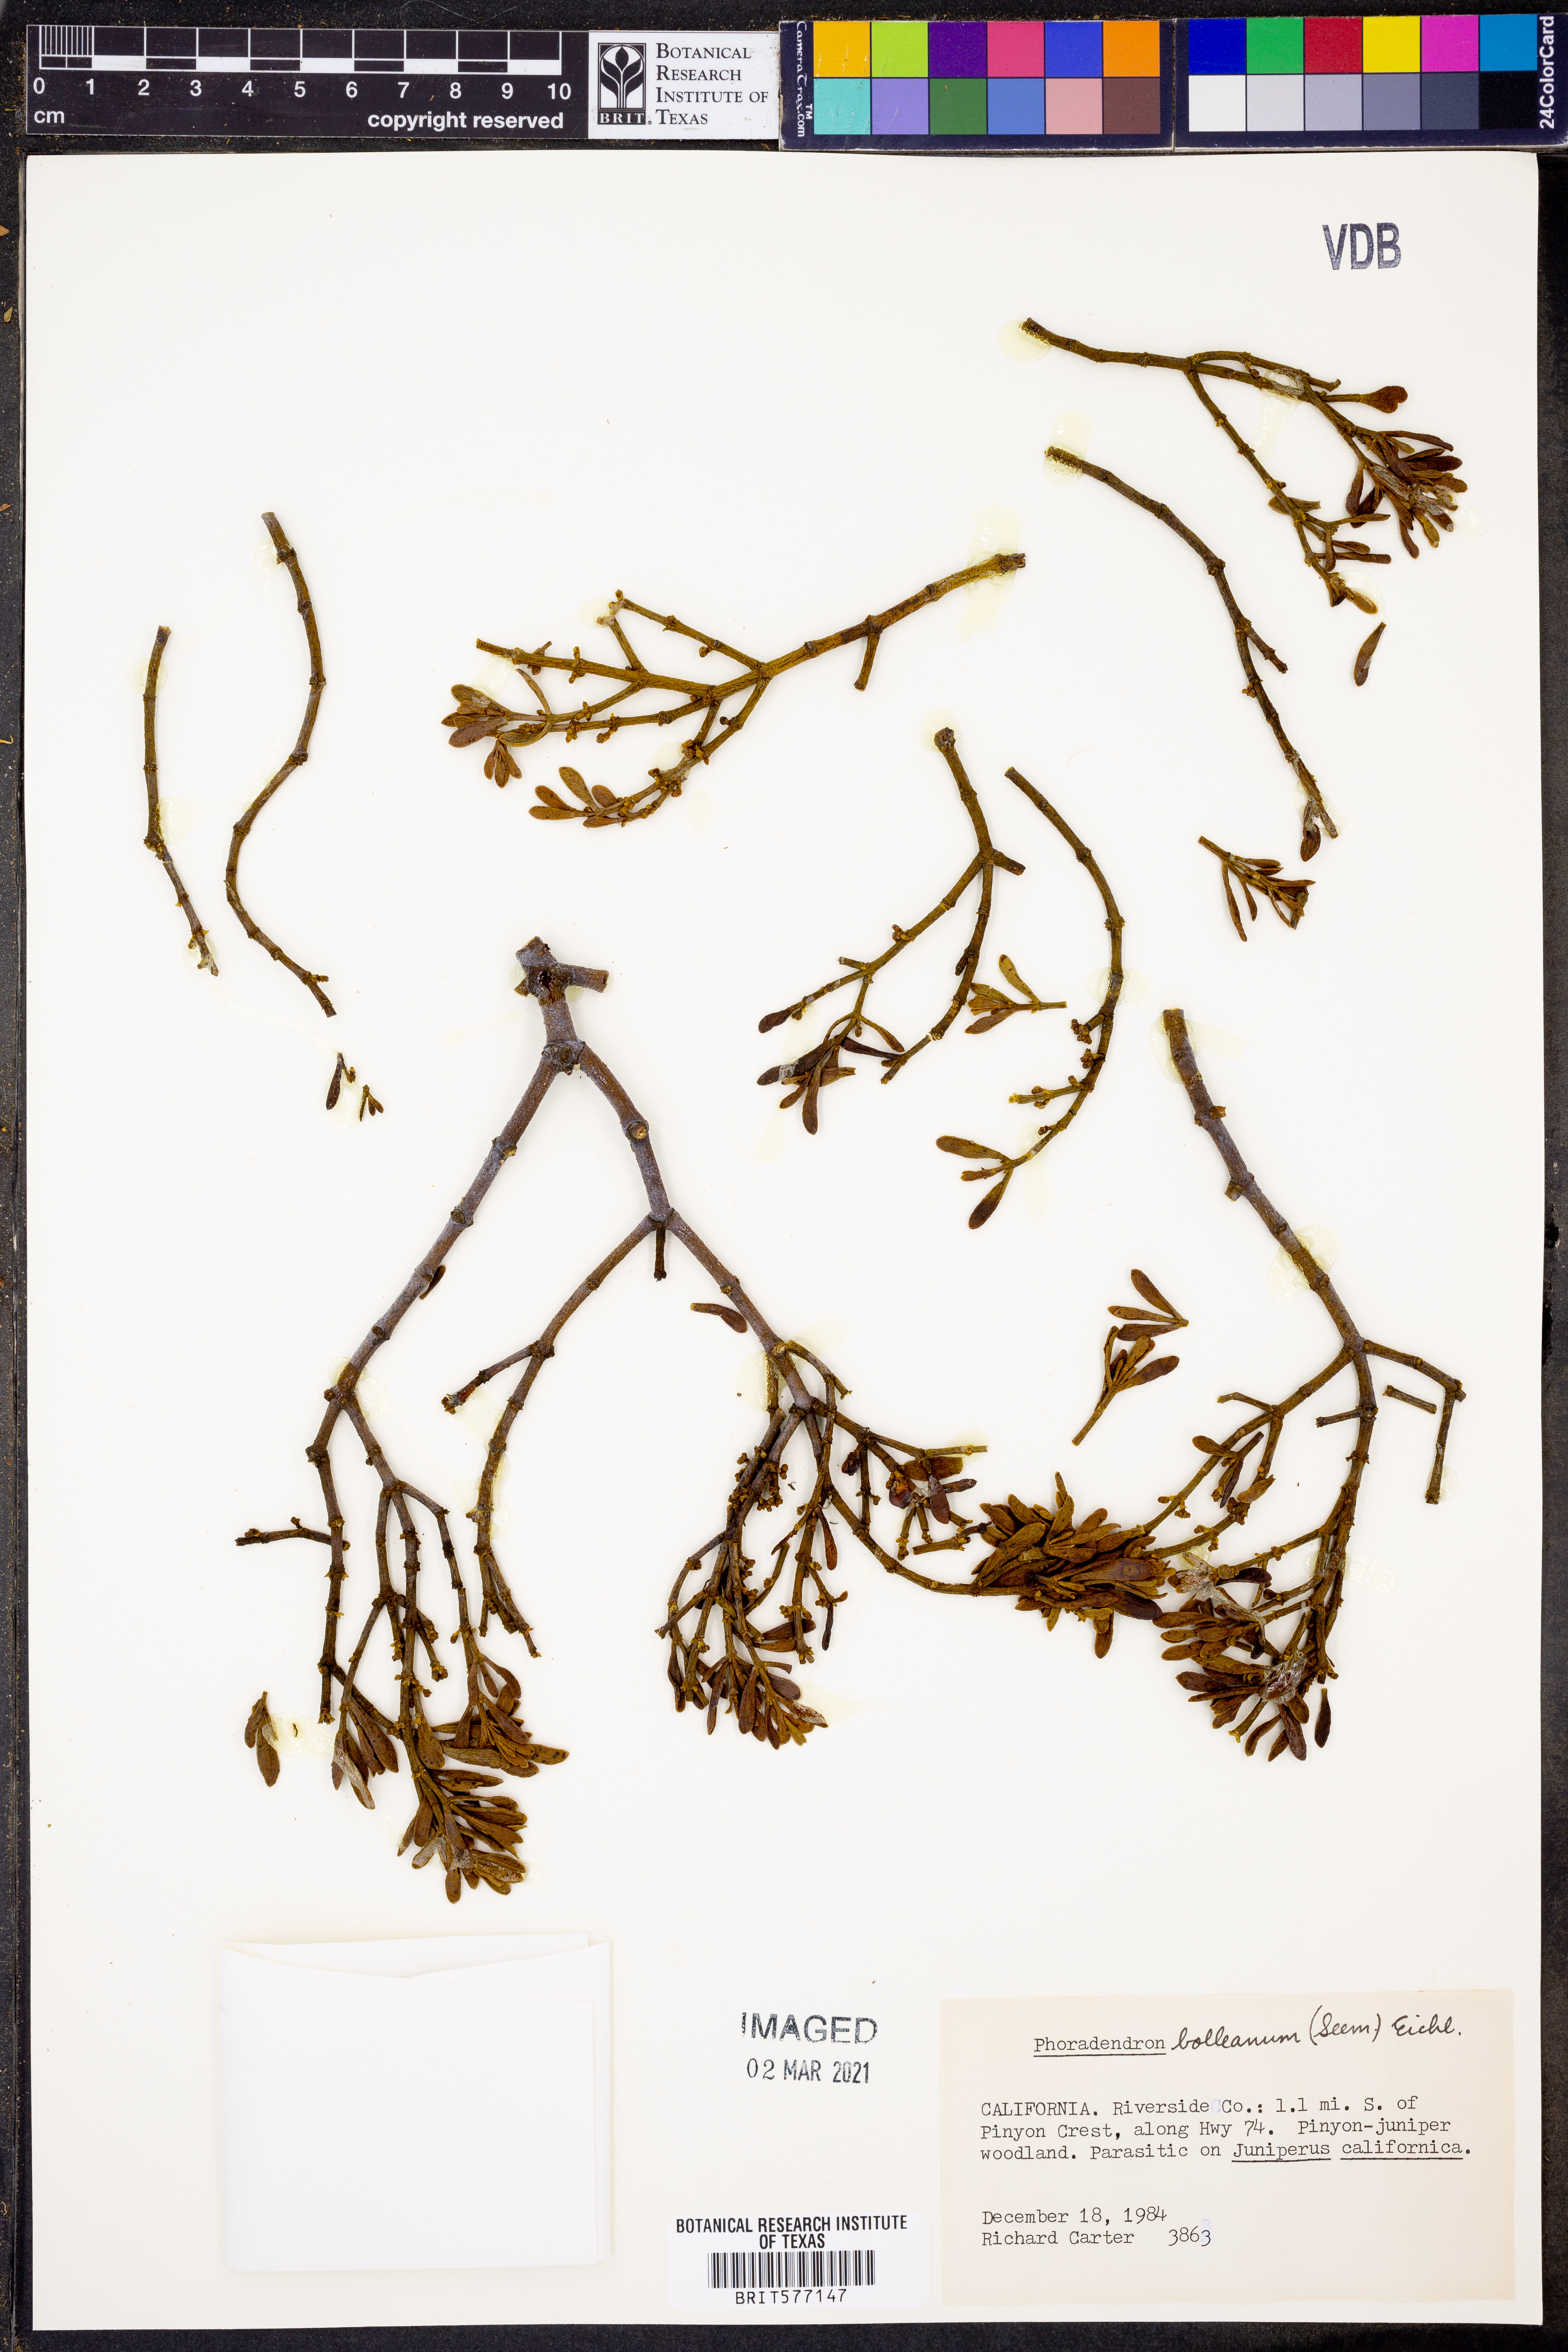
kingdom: Plantae
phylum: Tracheophyta
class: Magnoliopsida
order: Santalales
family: Viscaceae
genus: Phoradendron
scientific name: Phoradendron bolleanum
